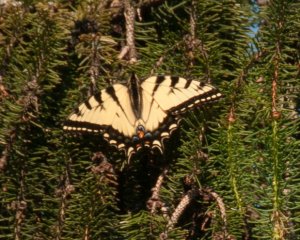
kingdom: Animalia
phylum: Arthropoda
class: Insecta
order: Lepidoptera
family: Papilionidae
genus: Pterourus
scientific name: Pterourus glaucus
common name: Eastern Tiger Swallowtail
